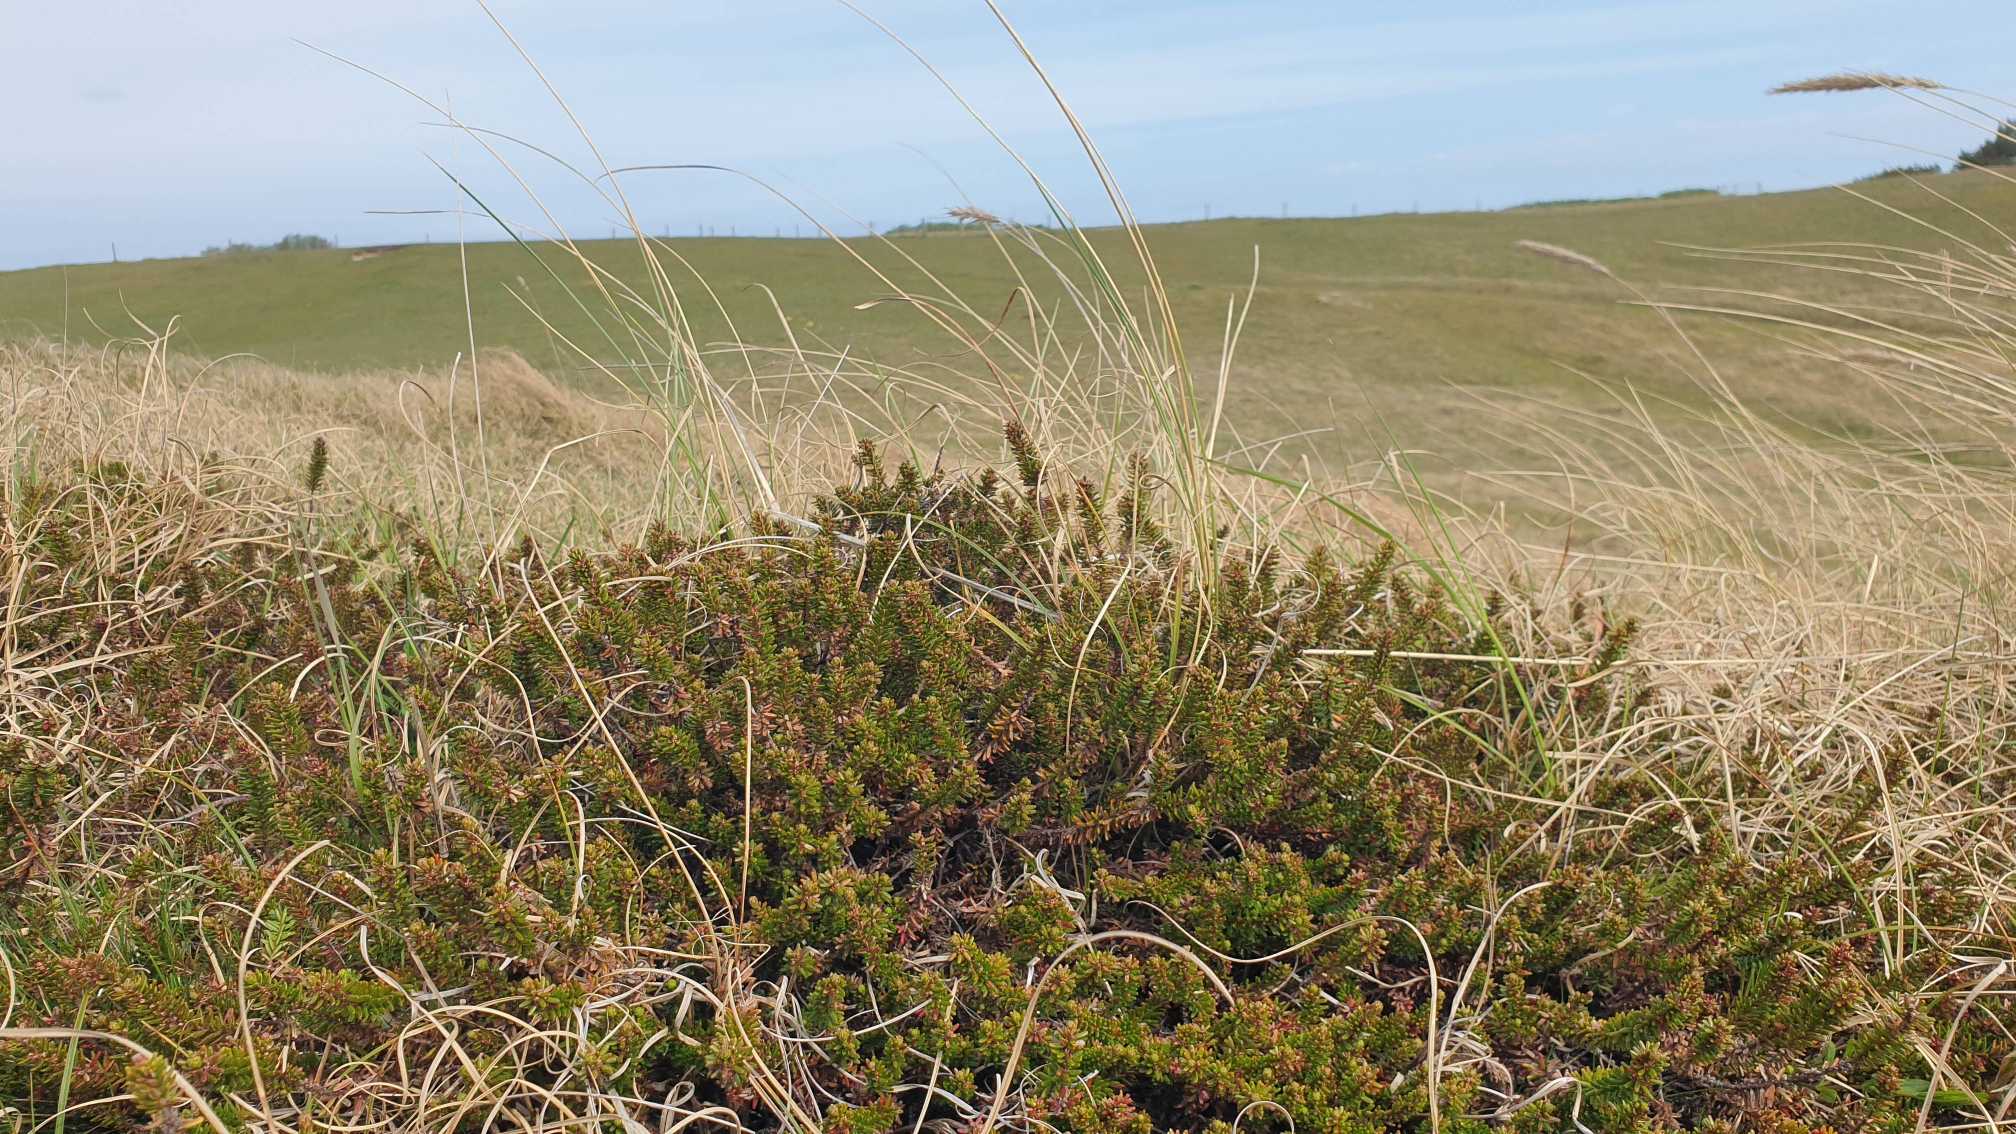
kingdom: Plantae
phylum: Tracheophyta
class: Magnoliopsida
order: Ericales
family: Ericaceae
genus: Empetrum
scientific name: Empetrum nigrum
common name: Revling
